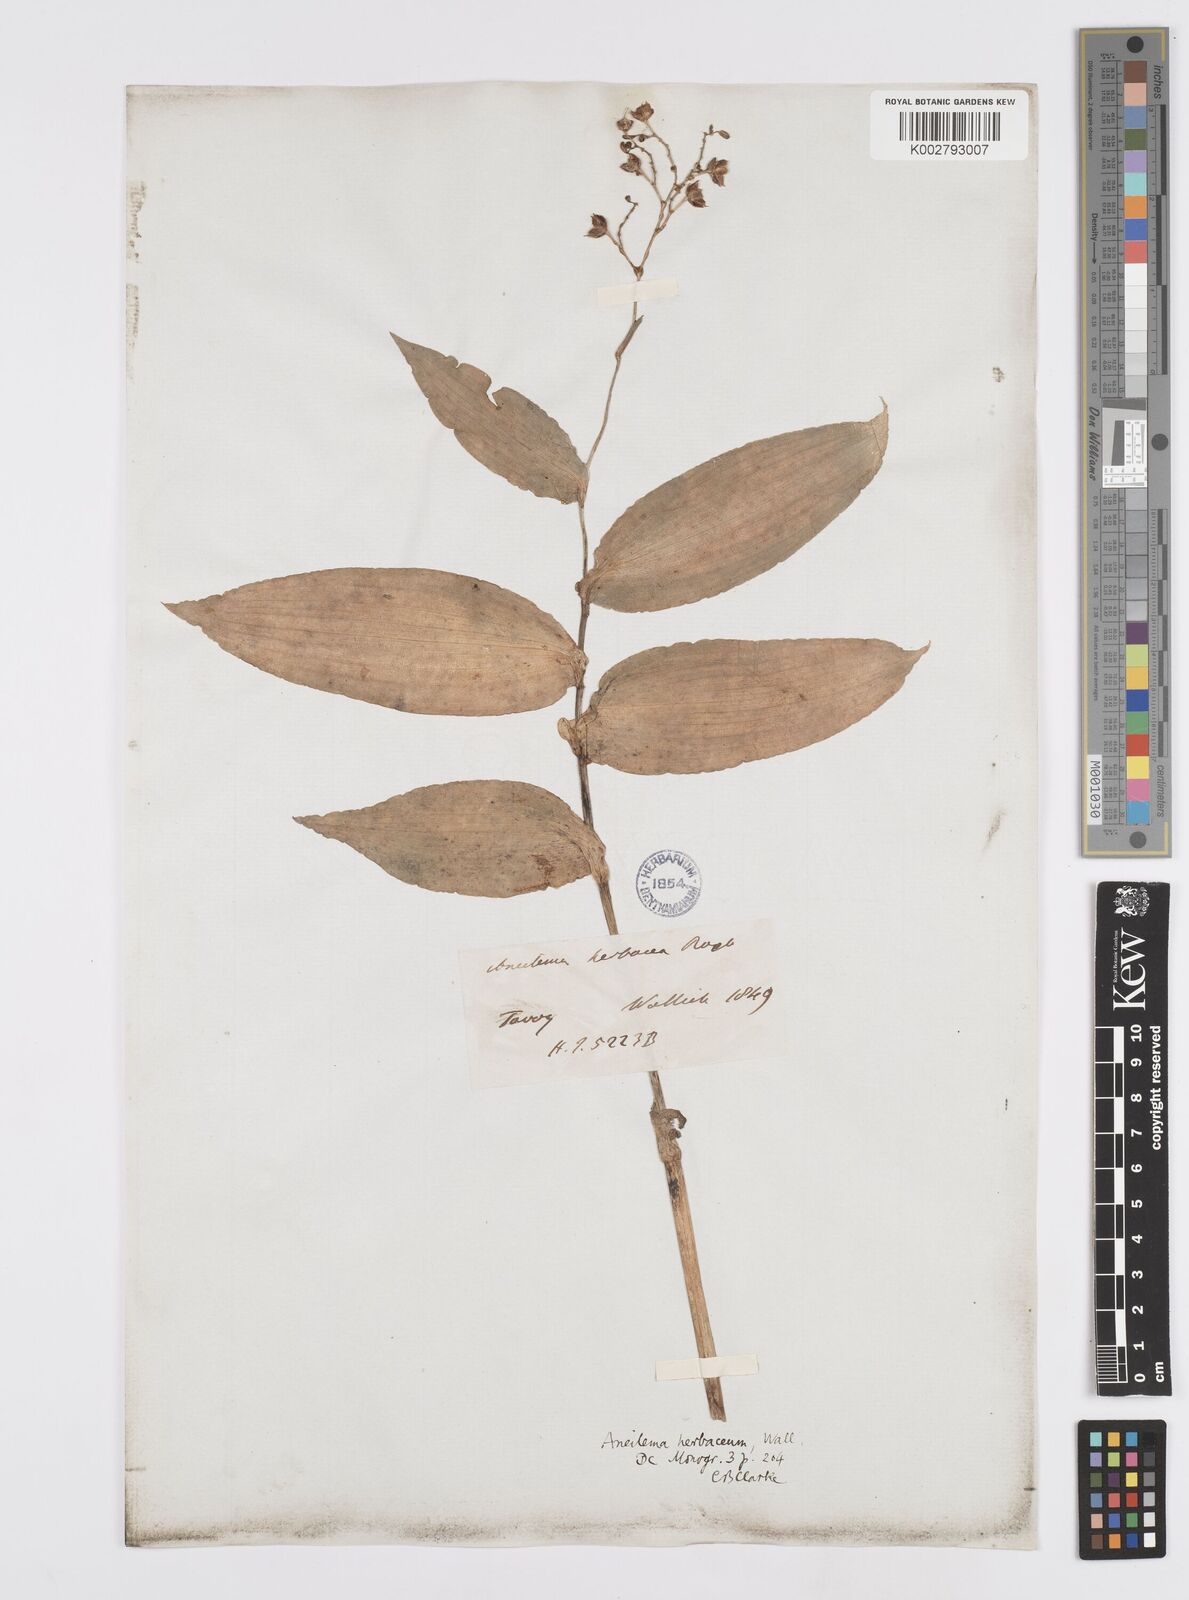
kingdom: Plantae
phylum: Tracheophyta
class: Liliopsida
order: Commelinales
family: Commelinaceae
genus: Murdannia
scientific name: Murdannia
